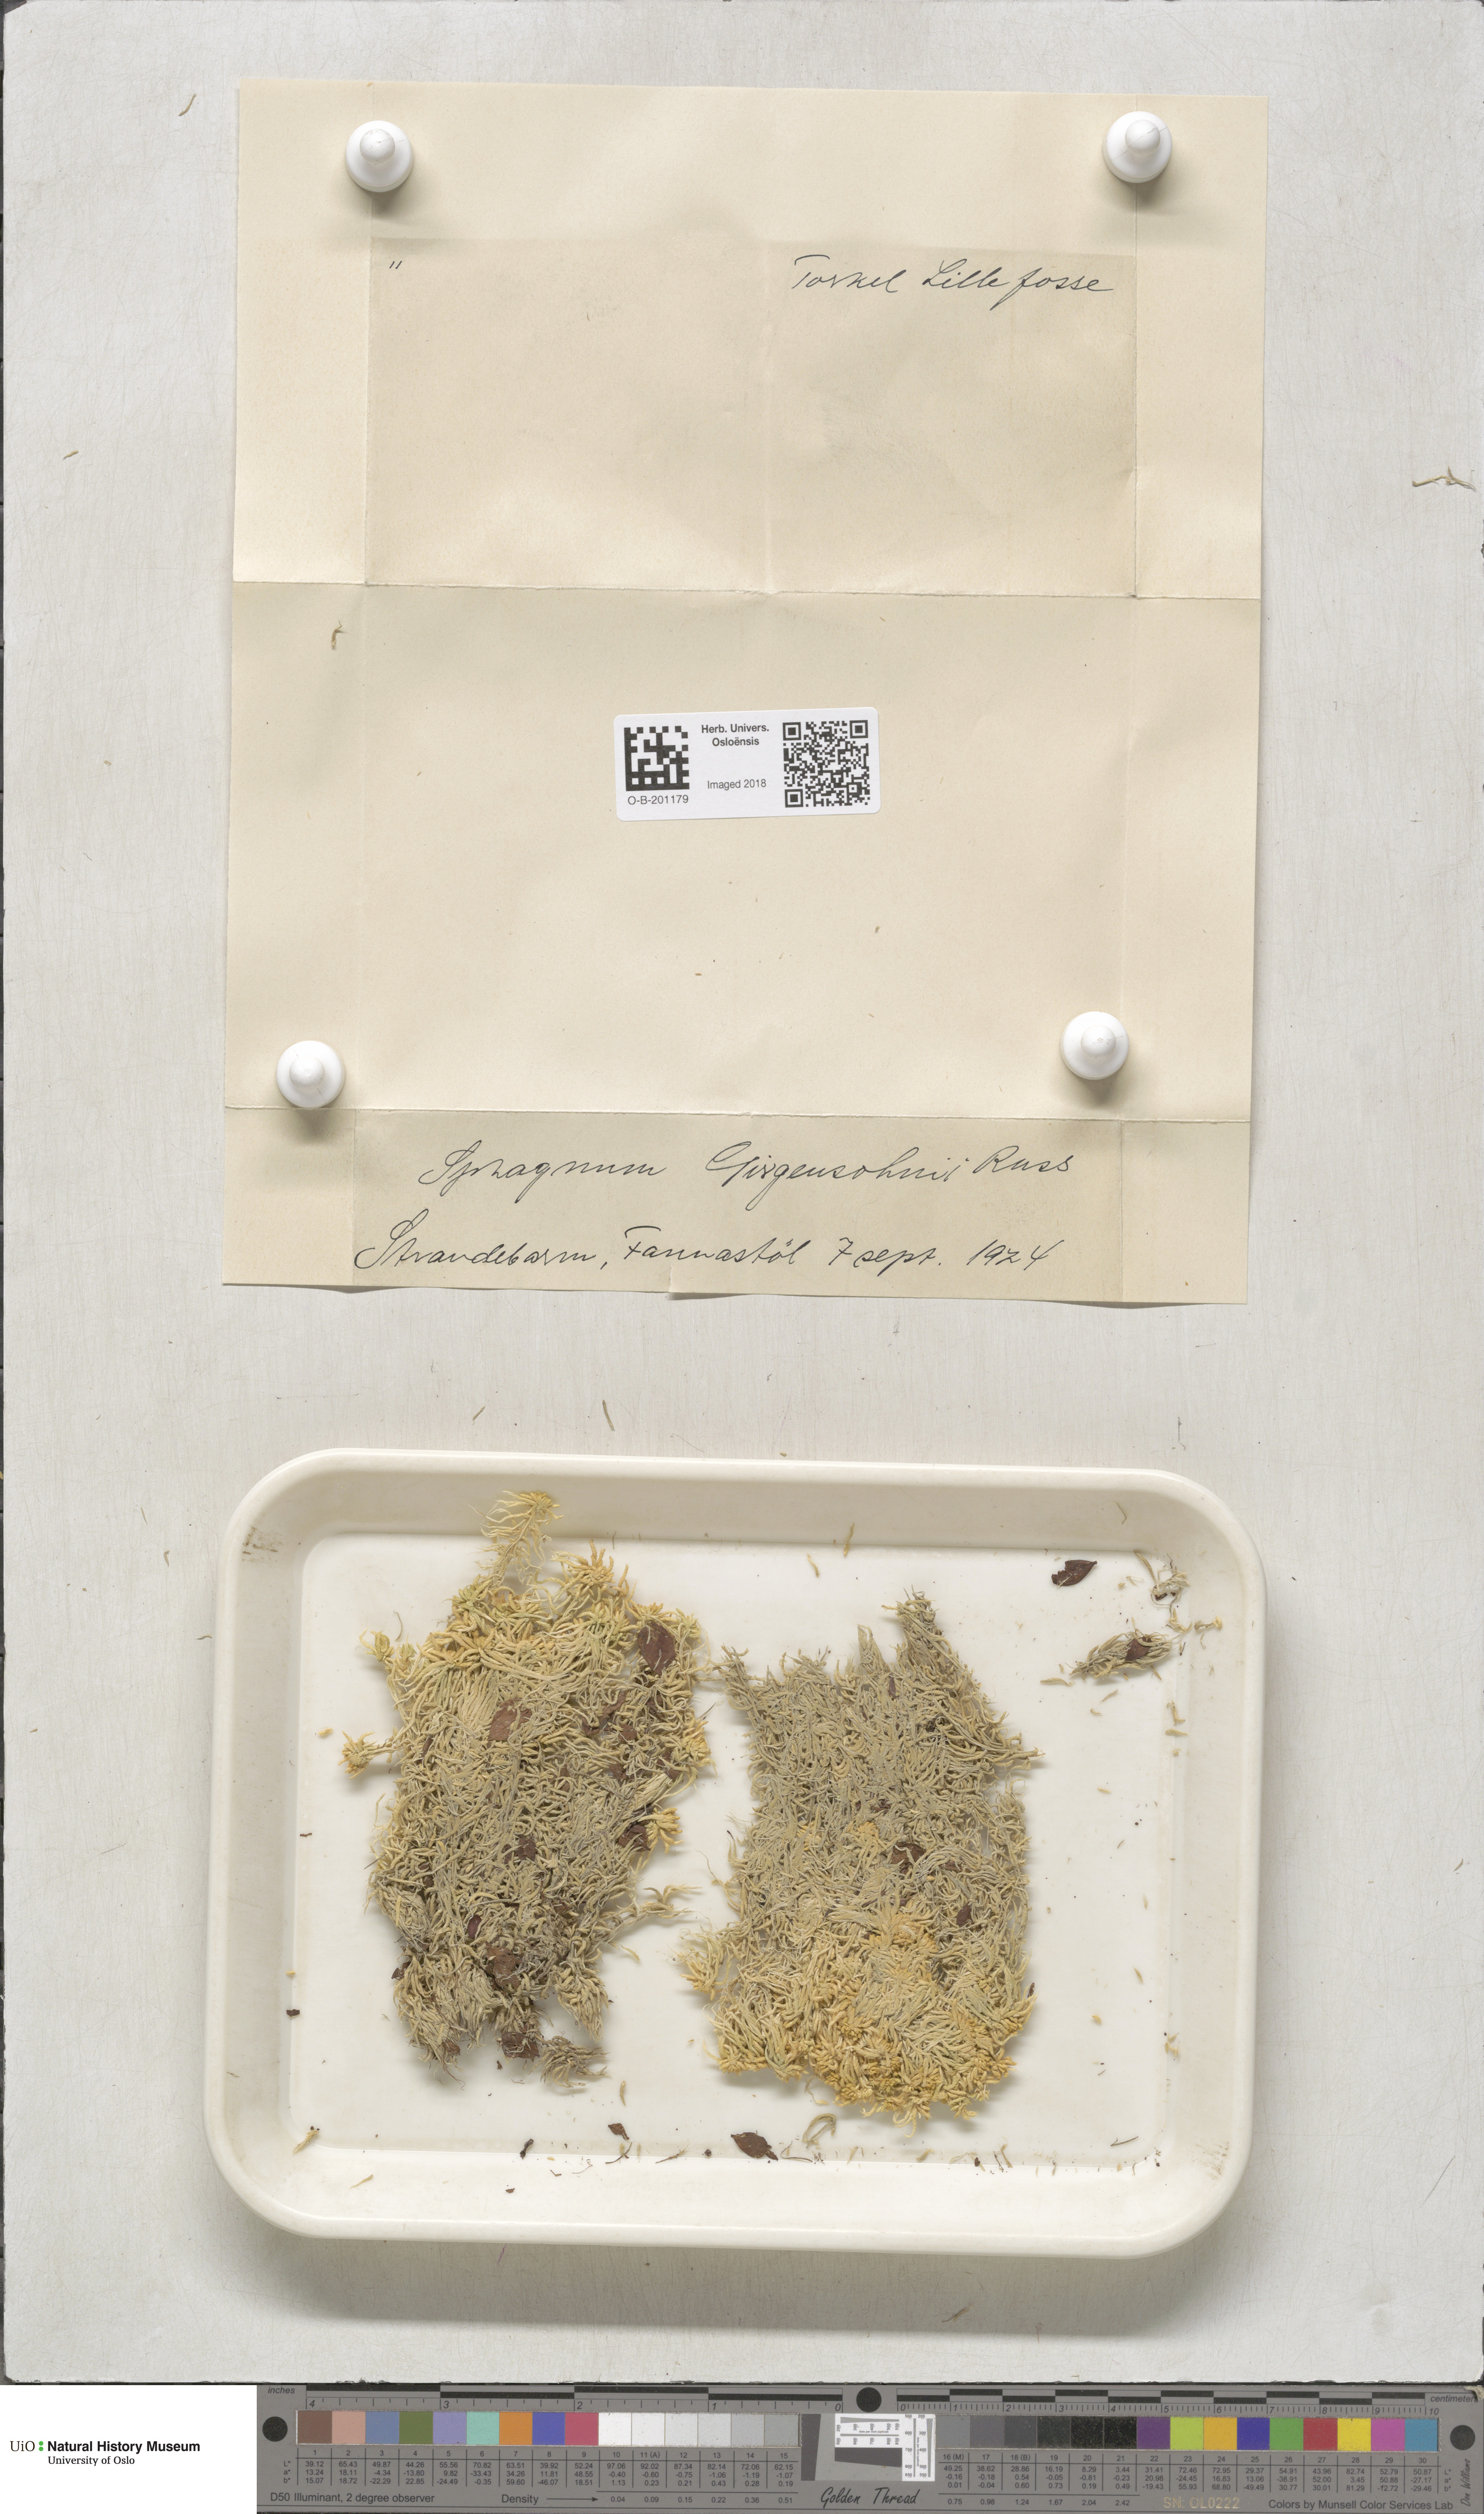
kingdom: Plantae
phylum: Bryophyta
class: Sphagnopsida
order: Sphagnales
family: Sphagnaceae
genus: Sphagnum
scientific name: Sphagnum girgensohnii
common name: Girgensohn's peat moss
